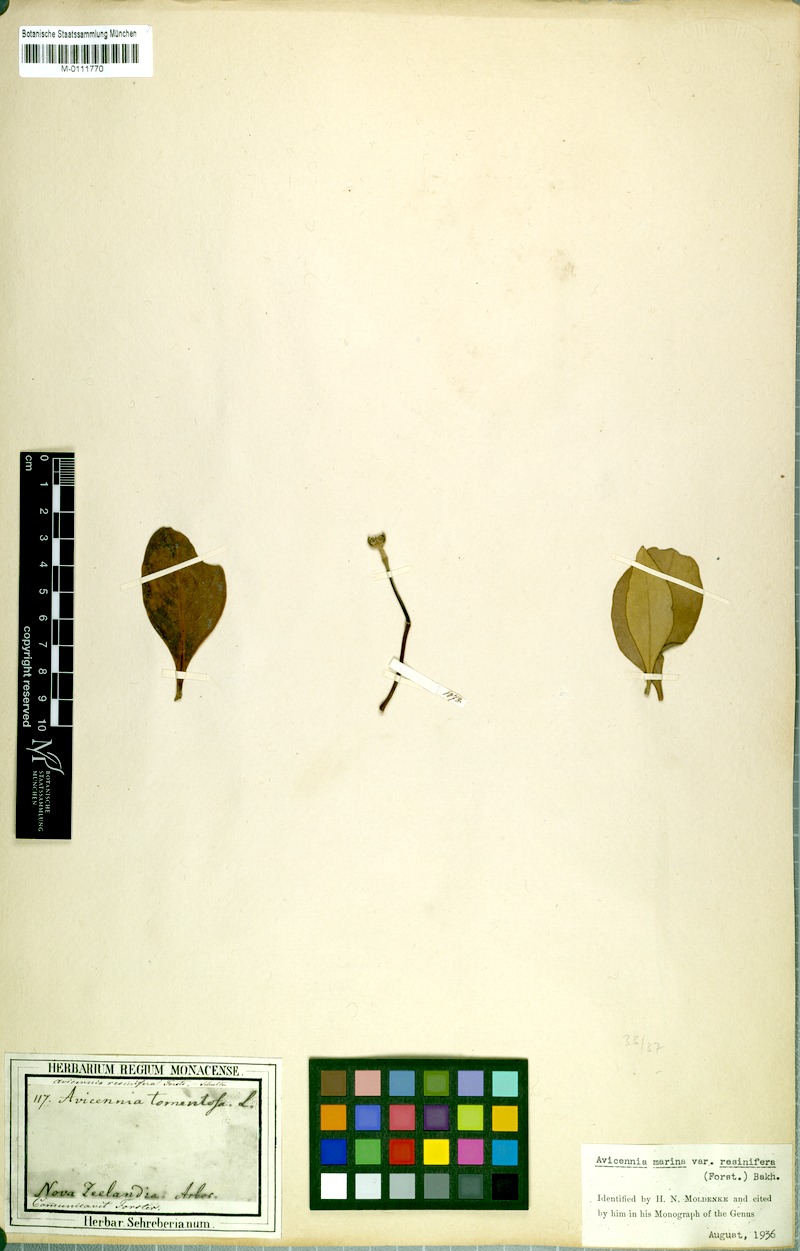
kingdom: Plantae
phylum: Tracheophyta
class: Magnoliopsida
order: Lamiales
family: Acanthaceae
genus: Avicennia
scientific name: Avicennia marina
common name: Gray mangrove
